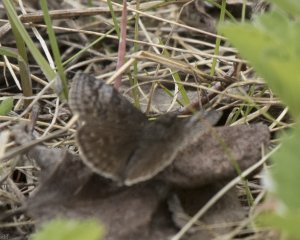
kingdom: Animalia
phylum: Arthropoda
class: Insecta
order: Lepidoptera
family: Hesperiidae
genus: Erynnis
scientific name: Erynnis icelus
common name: Dreamy Duskywing
